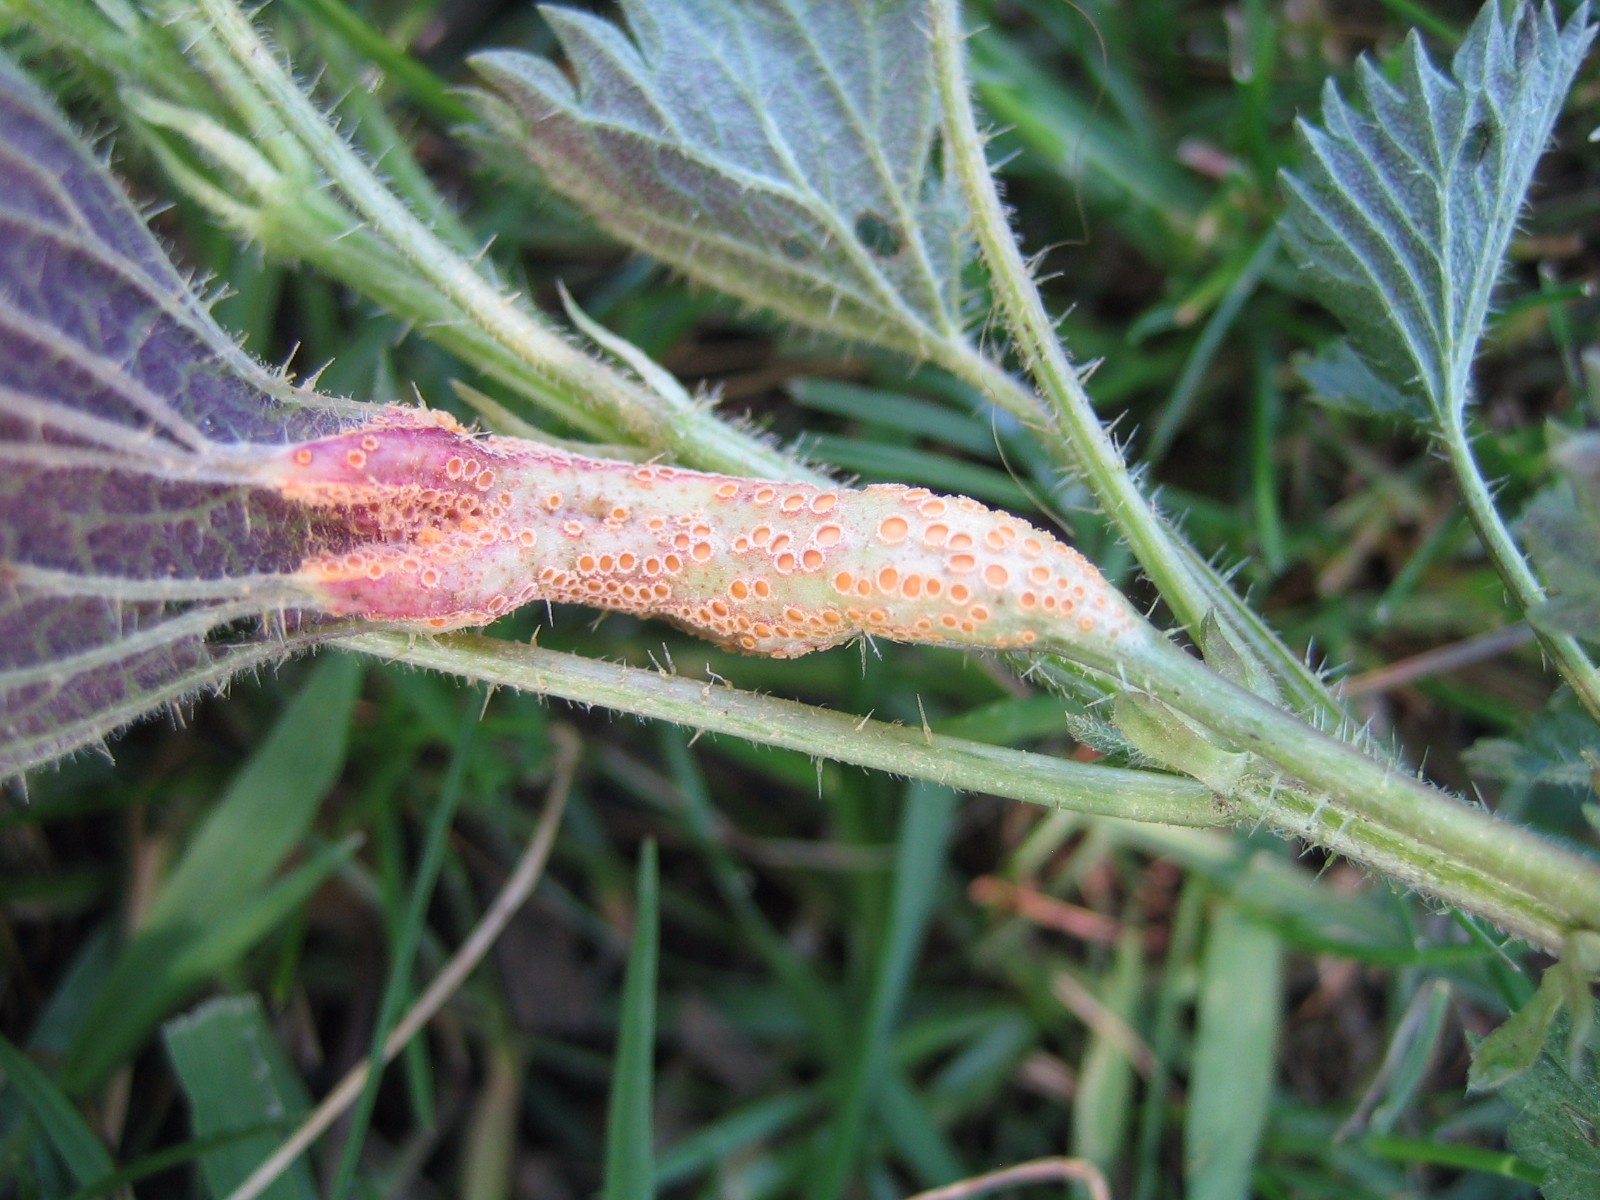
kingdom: Fungi
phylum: Basidiomycota
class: Pucciniomycetes
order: Pucciniales
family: Pucciniaceae
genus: Puccinia
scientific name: Puccinia urticata
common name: nældegalle-tvecellerust
